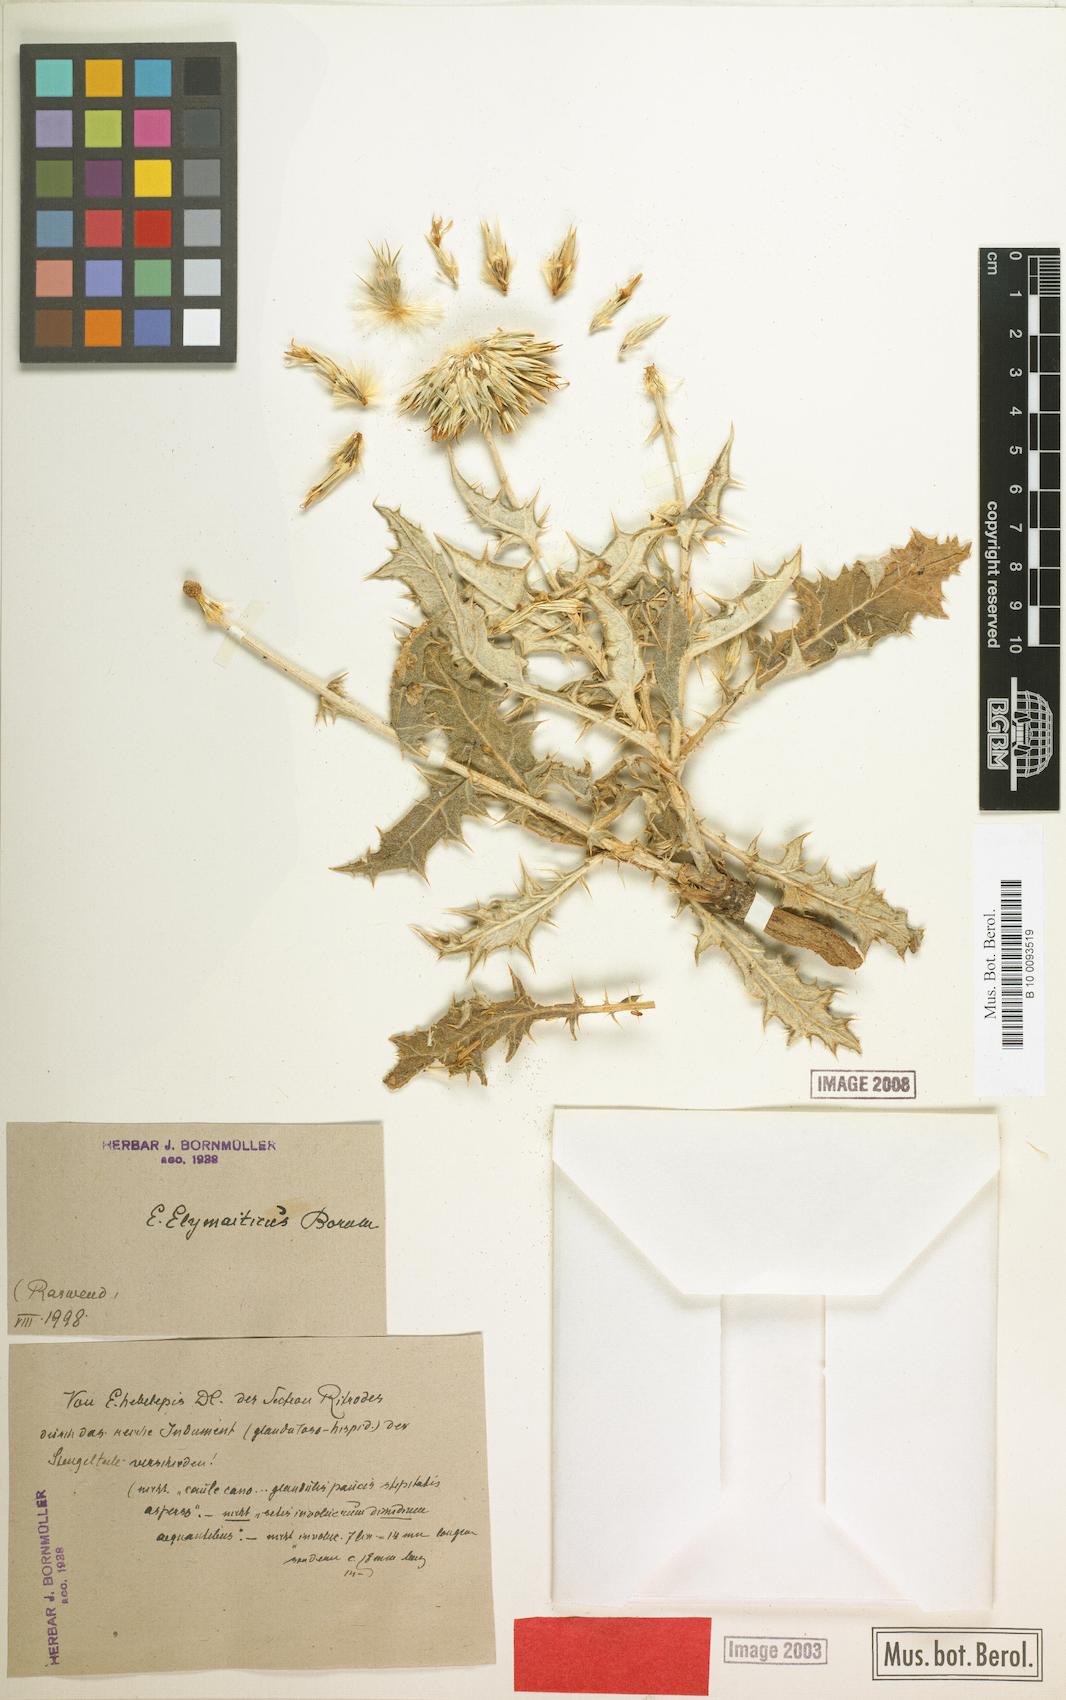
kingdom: Plantae
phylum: Tracheophyta
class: Magnoliopsida
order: Asterales
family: Asteraceae
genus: Echinops
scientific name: Echinops elymaiticus
